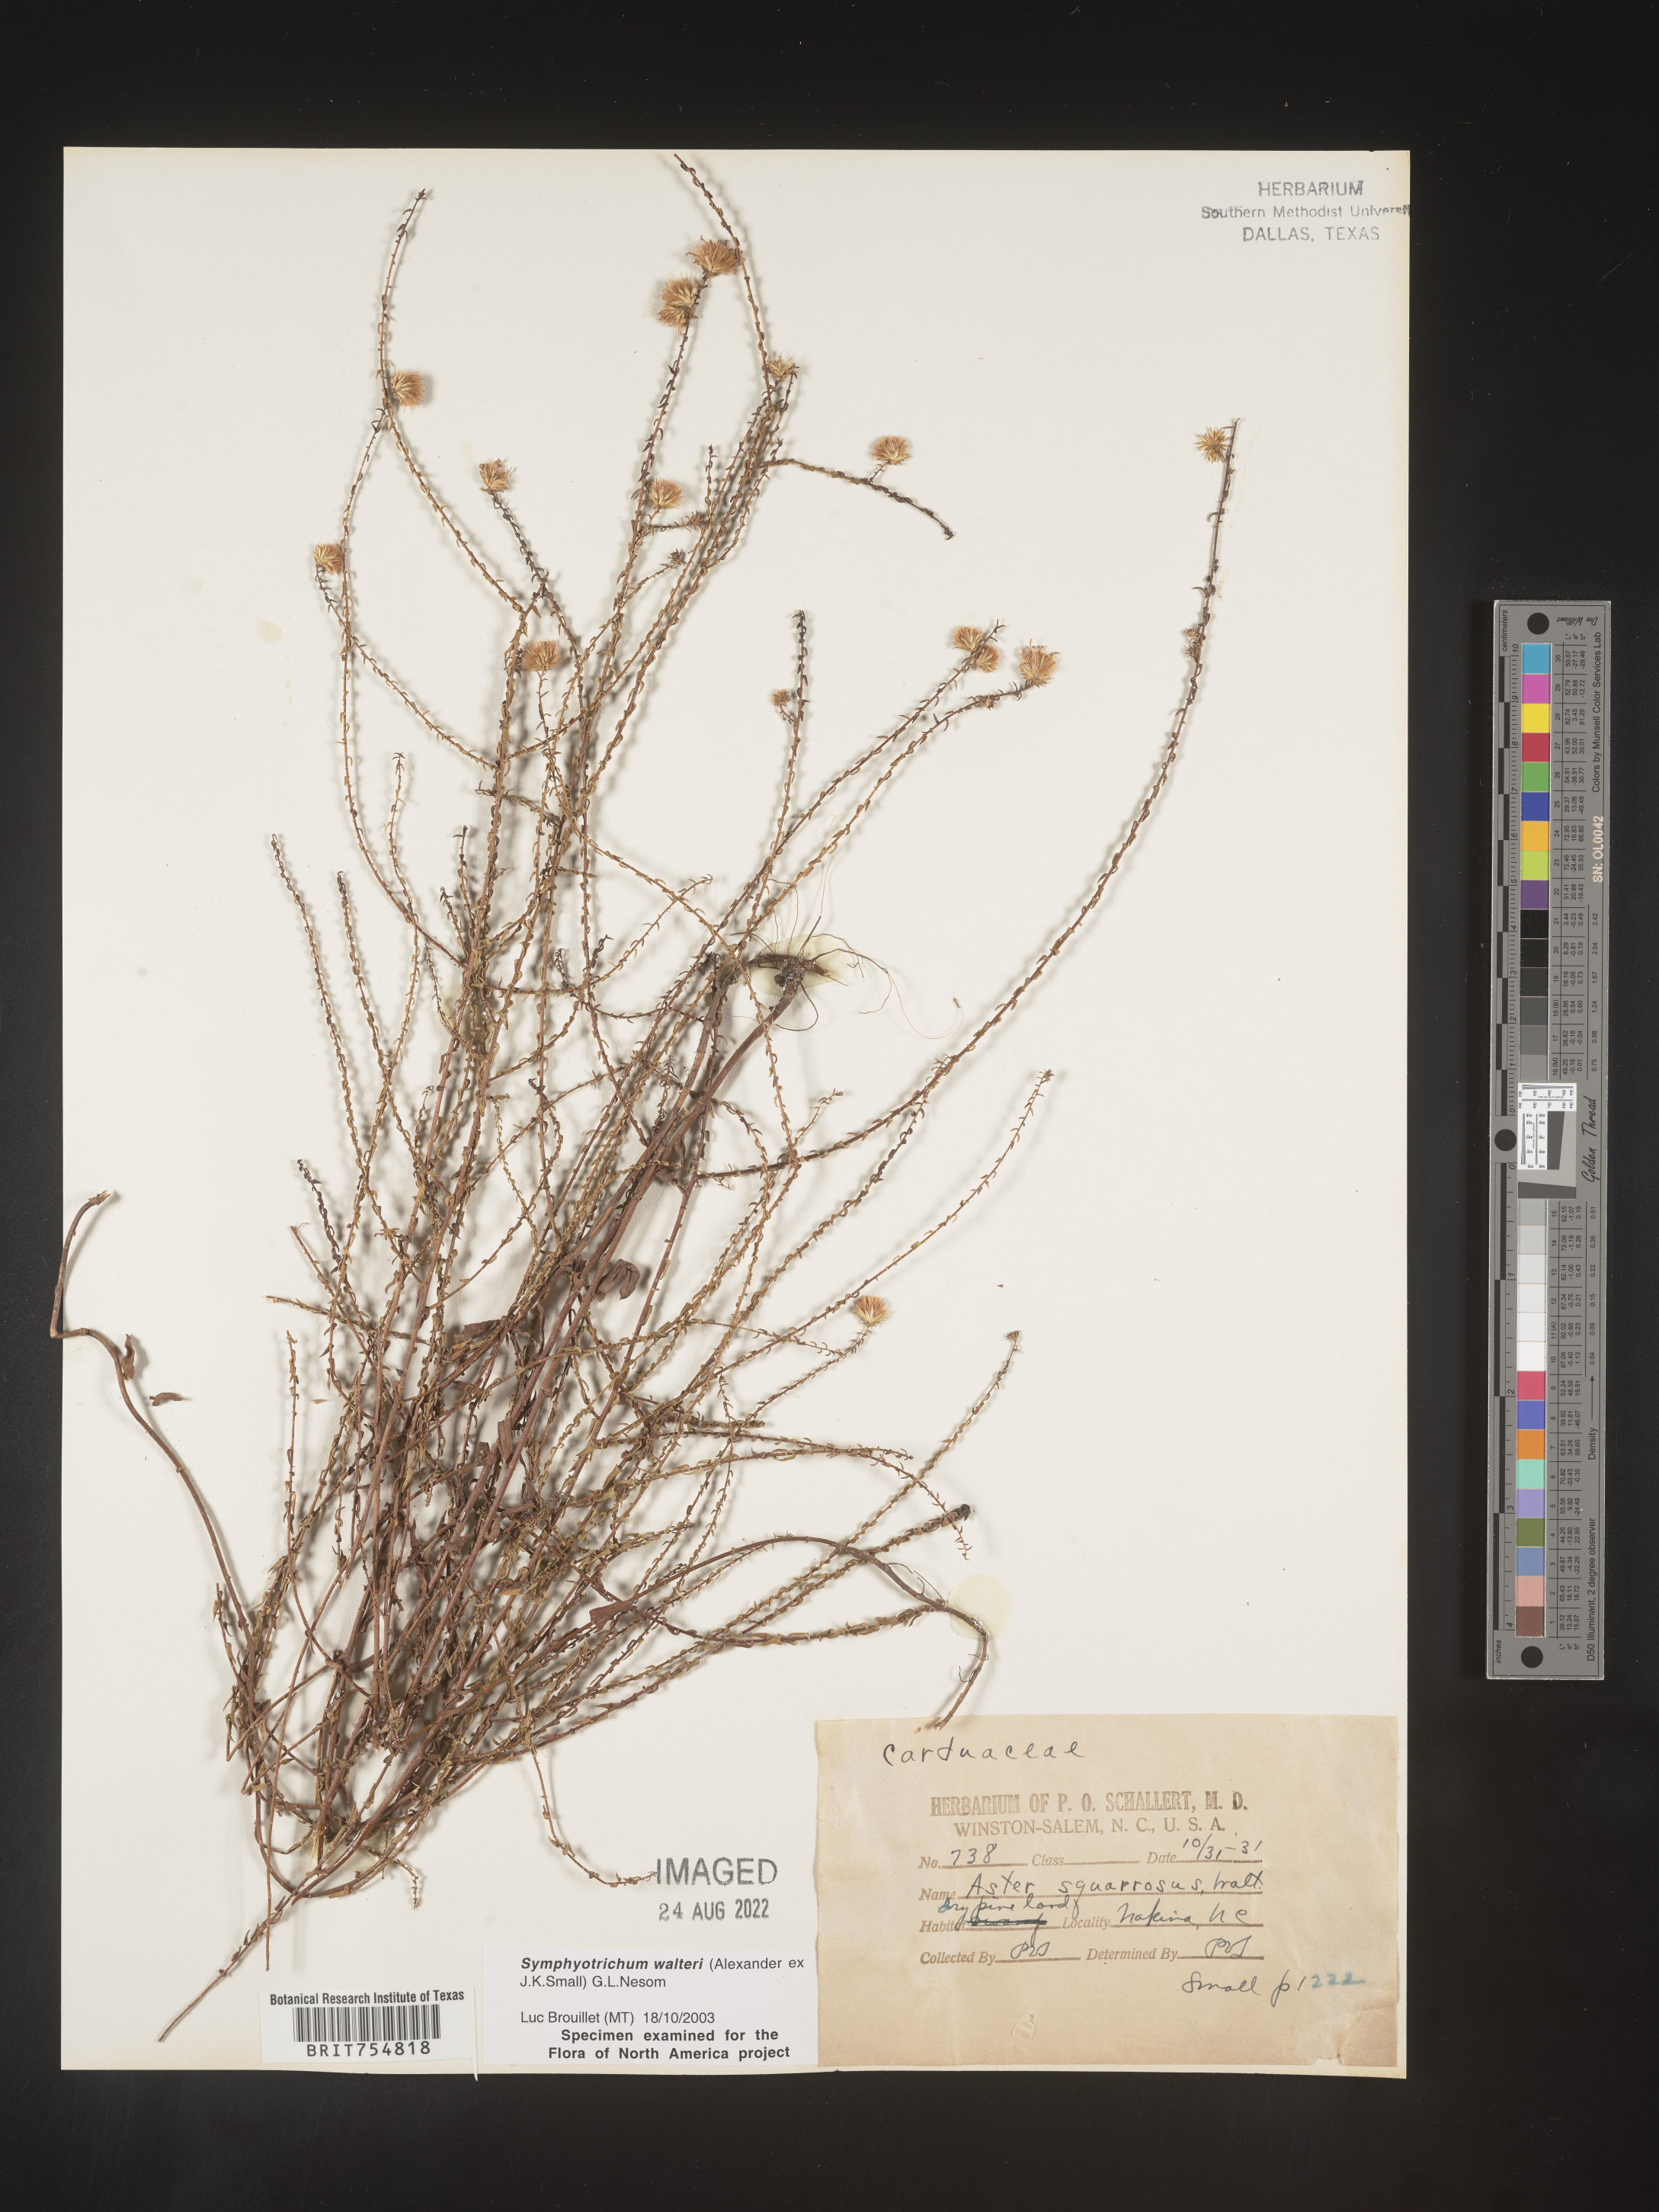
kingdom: Plantae
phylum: Tracheophyta
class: Magnoliopsida
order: Asterales
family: Asteraceae
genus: Symphyotrichum
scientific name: Symphyotrichum walteri
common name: Walter's aster
